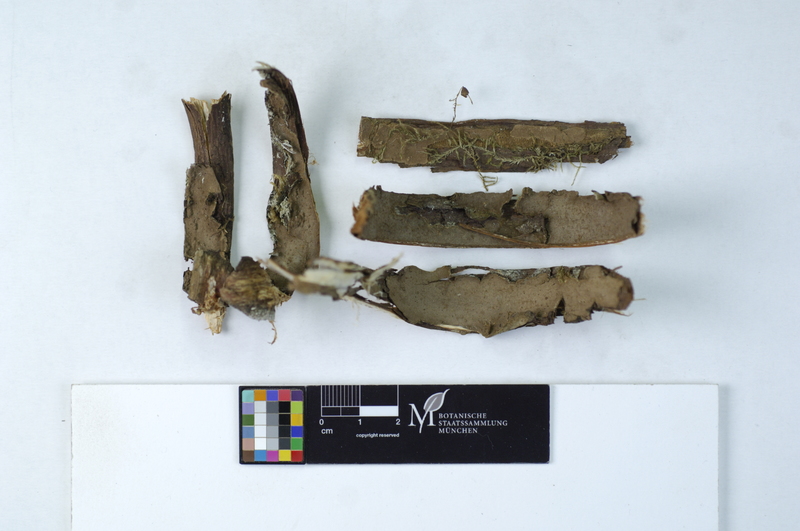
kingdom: Plantae
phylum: Tracheophyta
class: Pinopsida
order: Pinales
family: Cupressaceae
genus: Juniperus
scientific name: Juniperus
